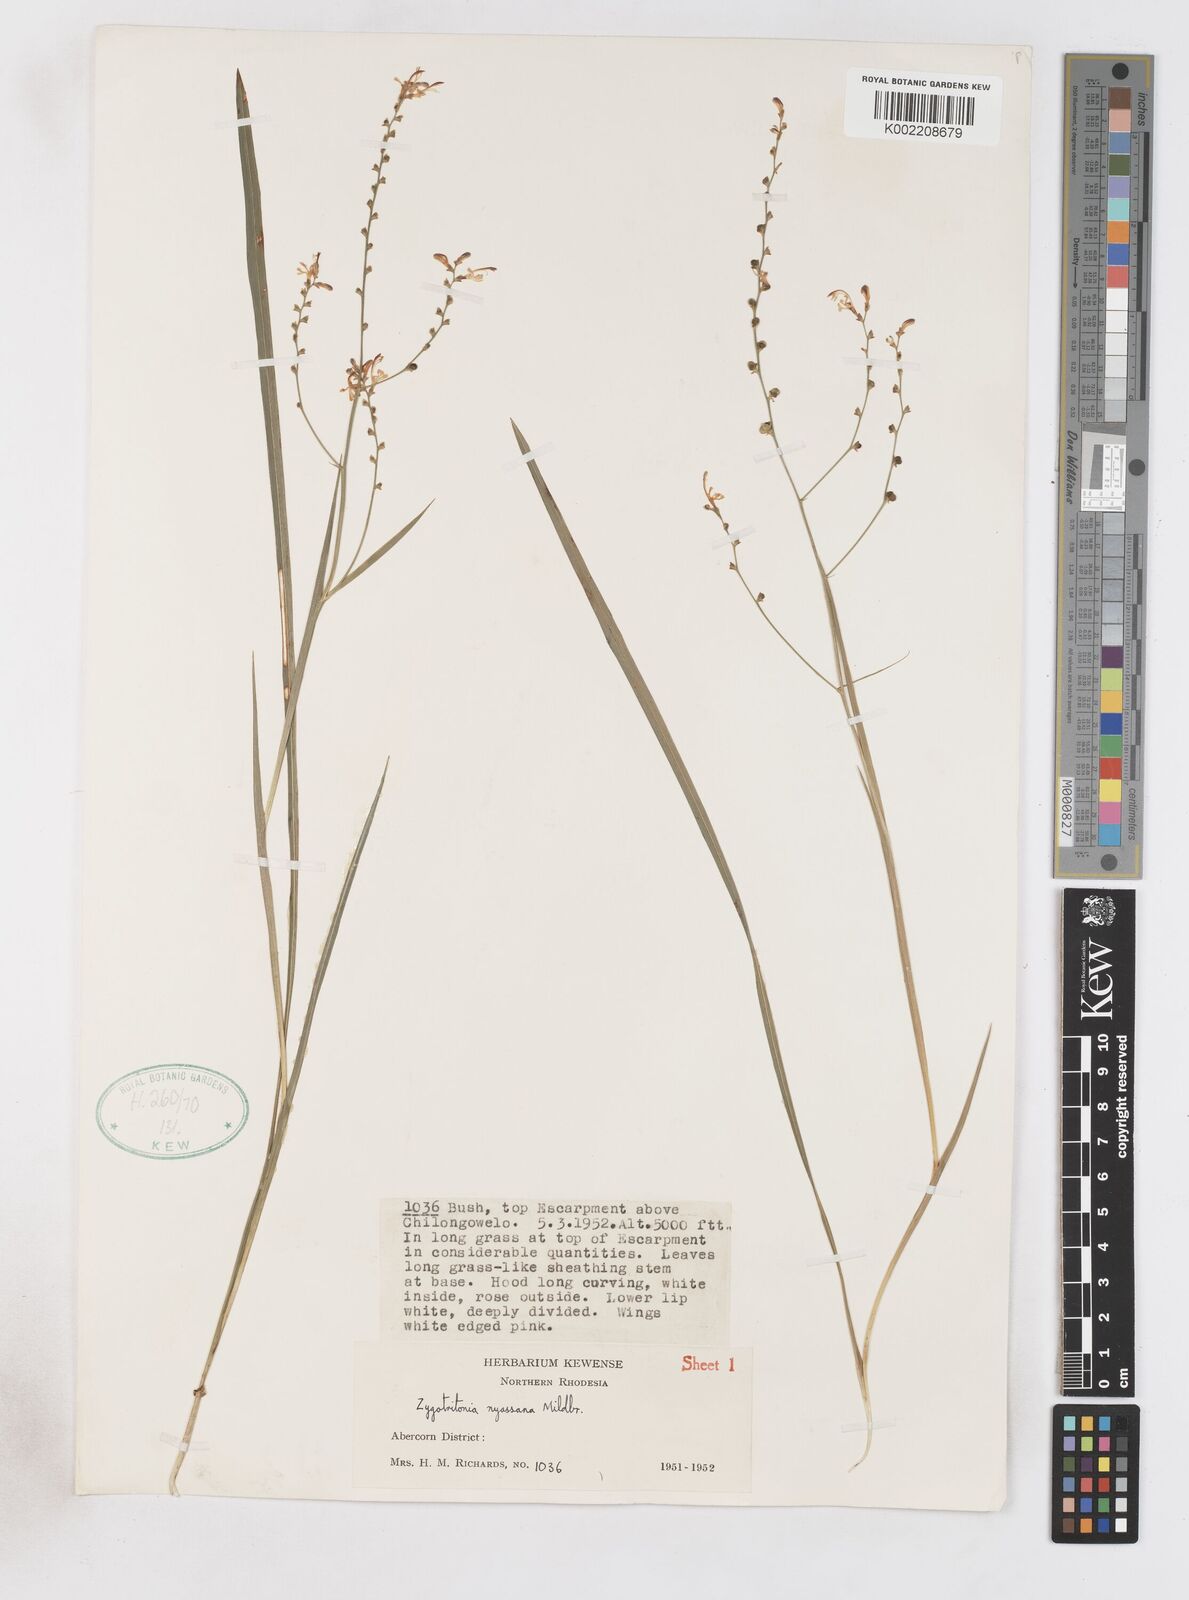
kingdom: Plantae
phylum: Tracheophyta
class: Liliopsida
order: Asparagales
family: Iridaceae
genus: Zygotritonia
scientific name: Zygotritonia nyassana
